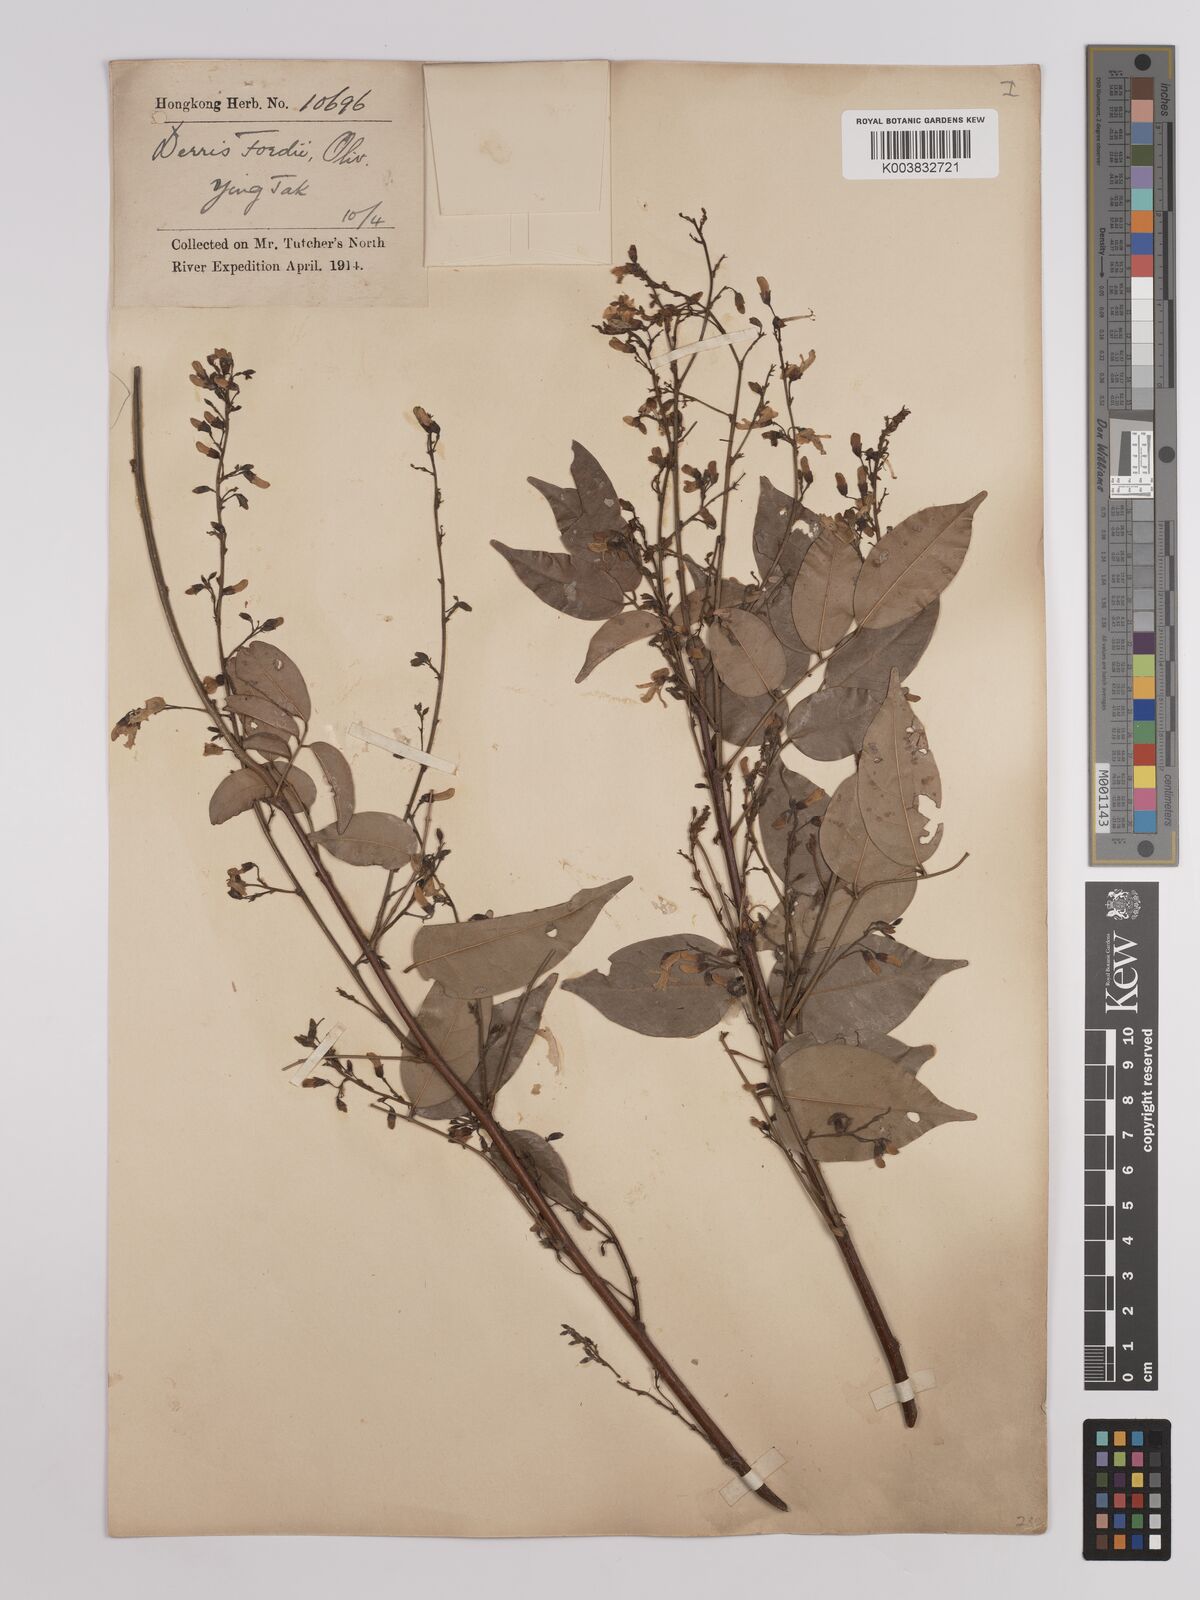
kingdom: Plantae
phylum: Tracheophyta
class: Magnoliopsida
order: Fabales
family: Fabaceae
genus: Derris
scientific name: Derris fordii
